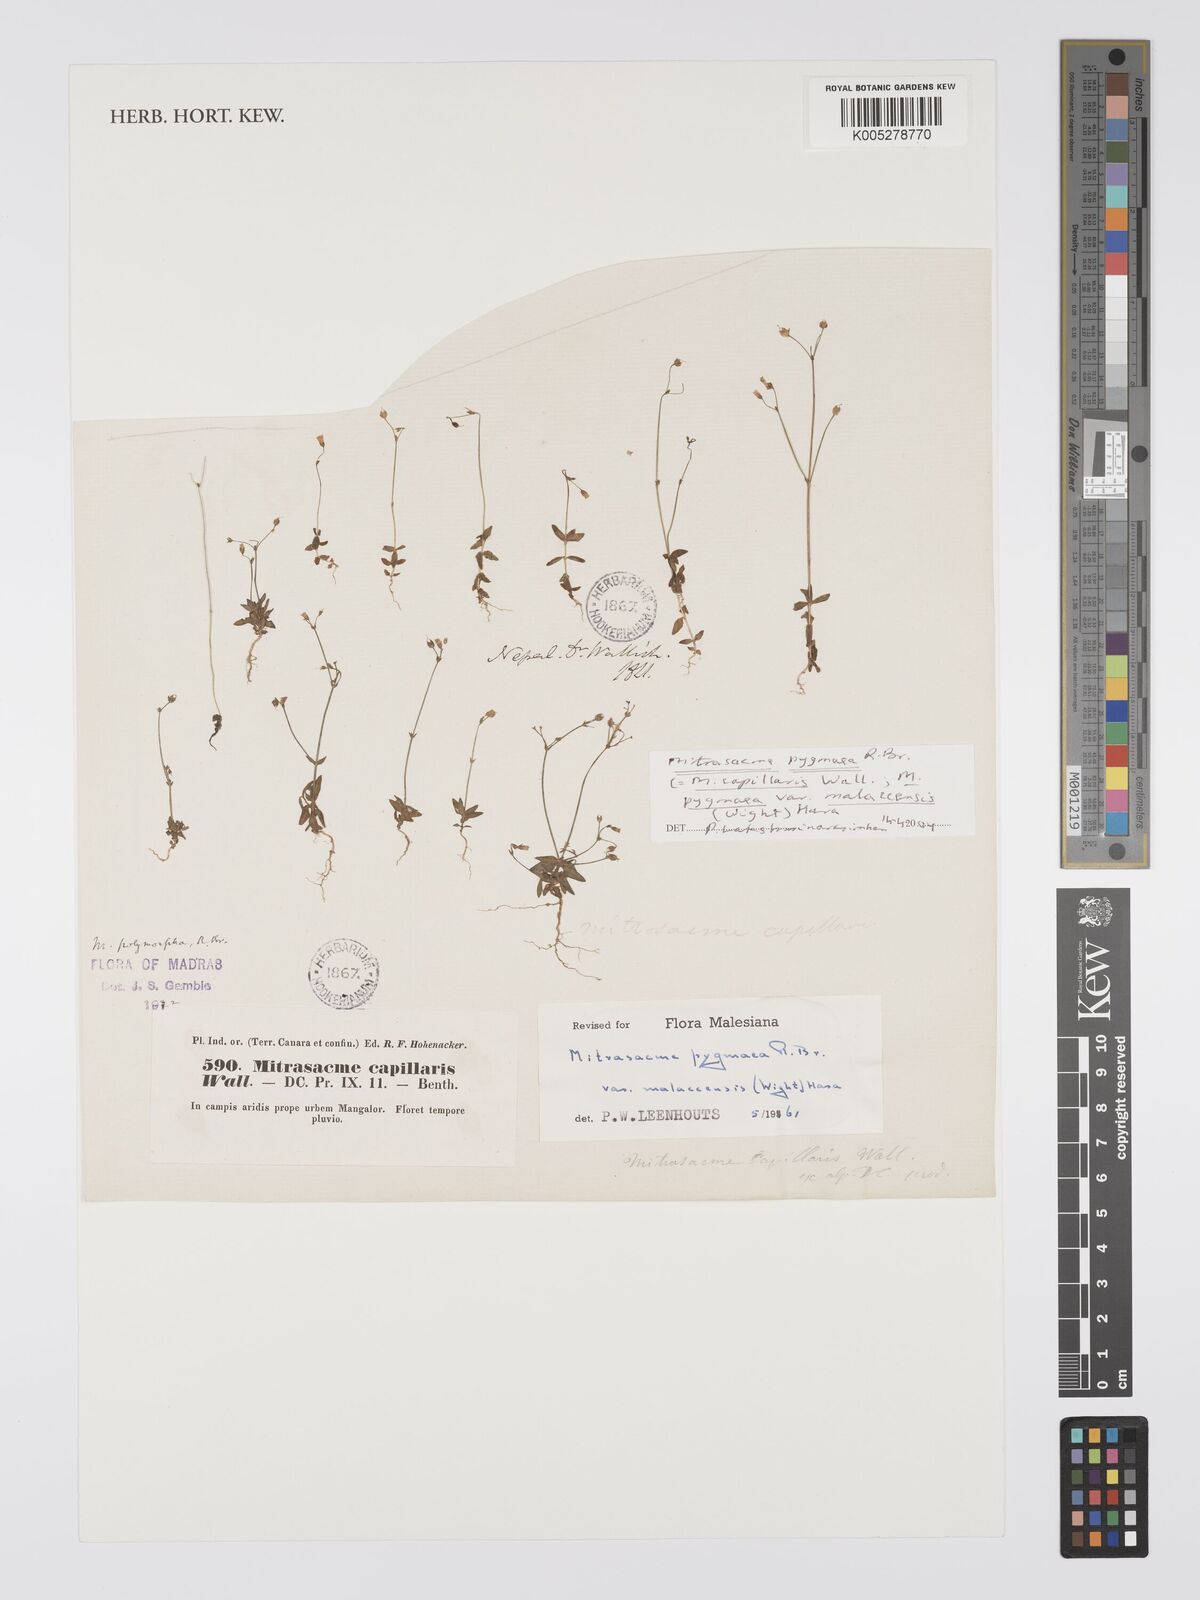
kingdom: Plantae
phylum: Tracheophyta
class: Magnoliopsida
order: Gentianales
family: Loganiaceae
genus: Mitrasacme
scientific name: Mitrasacme pygmaea
